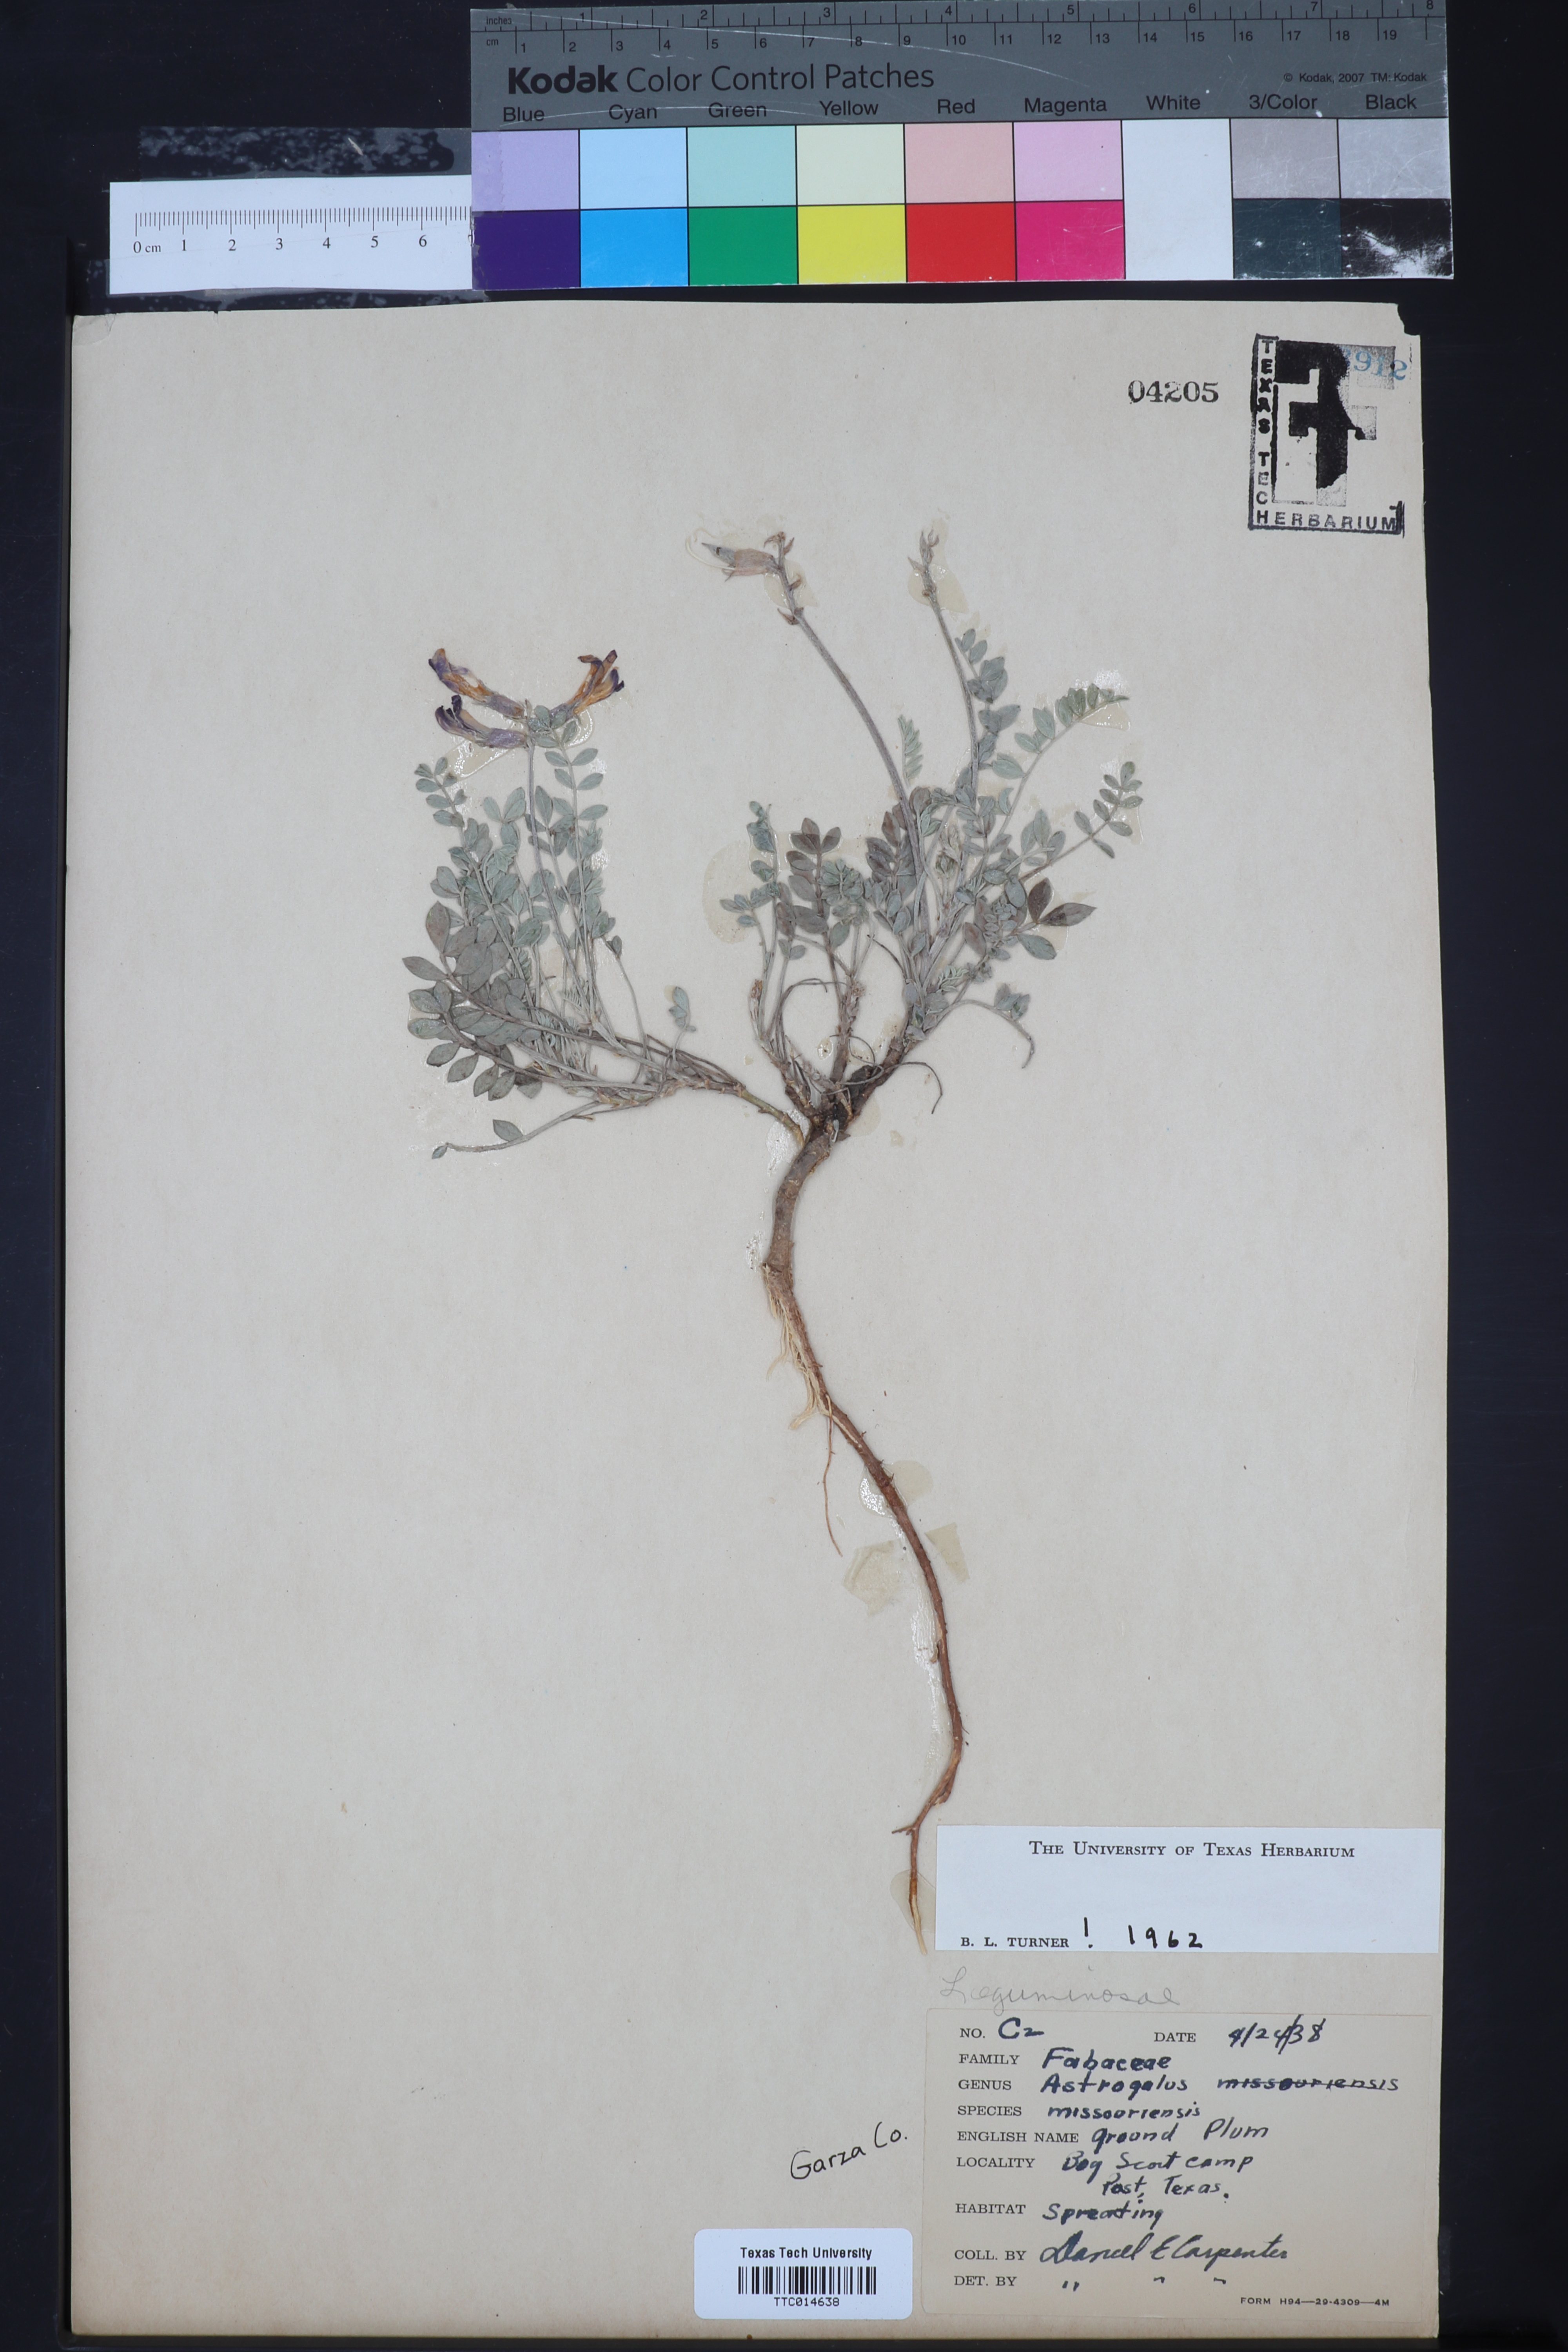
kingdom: Plantae
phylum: Tracheophyta
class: Magnoliopsida
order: Fabales
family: Fabaceae
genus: Astragalus
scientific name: Astragalus missouriensis
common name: Missouri milk-vetch
